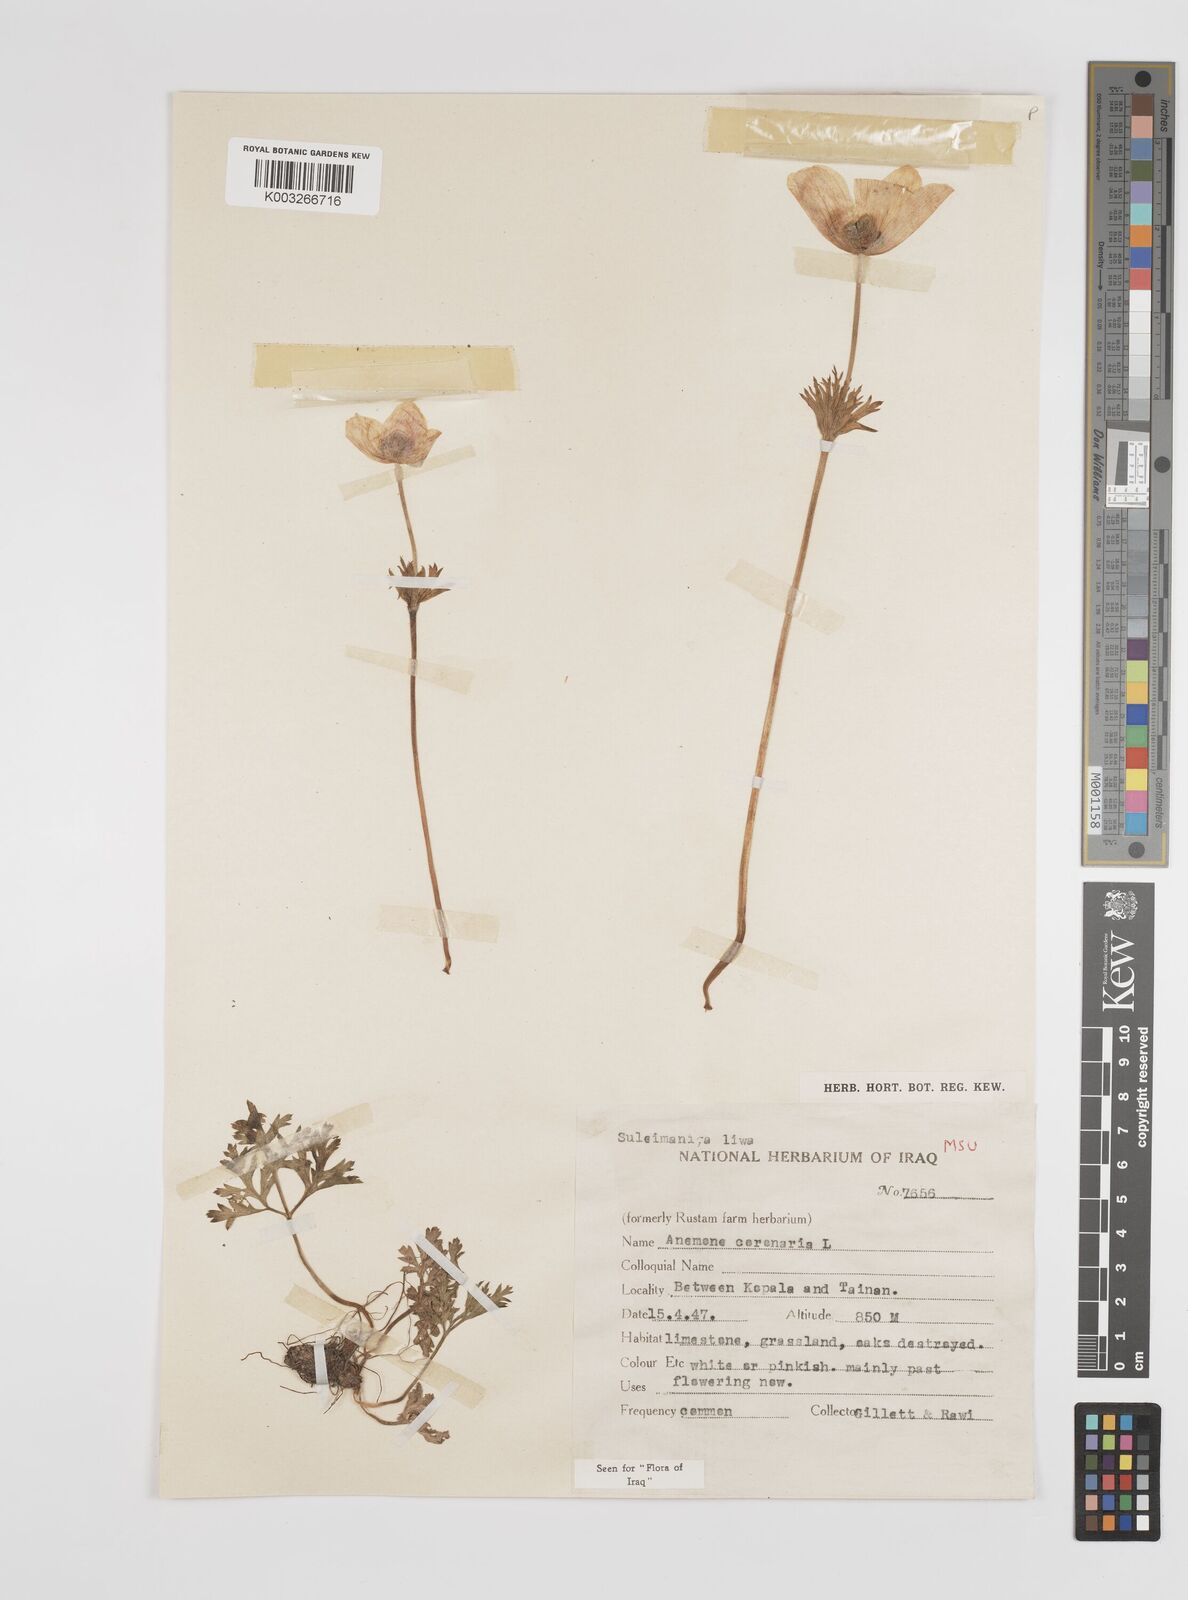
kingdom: Plantae
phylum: Tracheophyta
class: Magnoliopsida
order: Ranunculales
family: Ranunculaceae
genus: Anemone
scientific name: Anemone coronaria
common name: Poppy anemone
